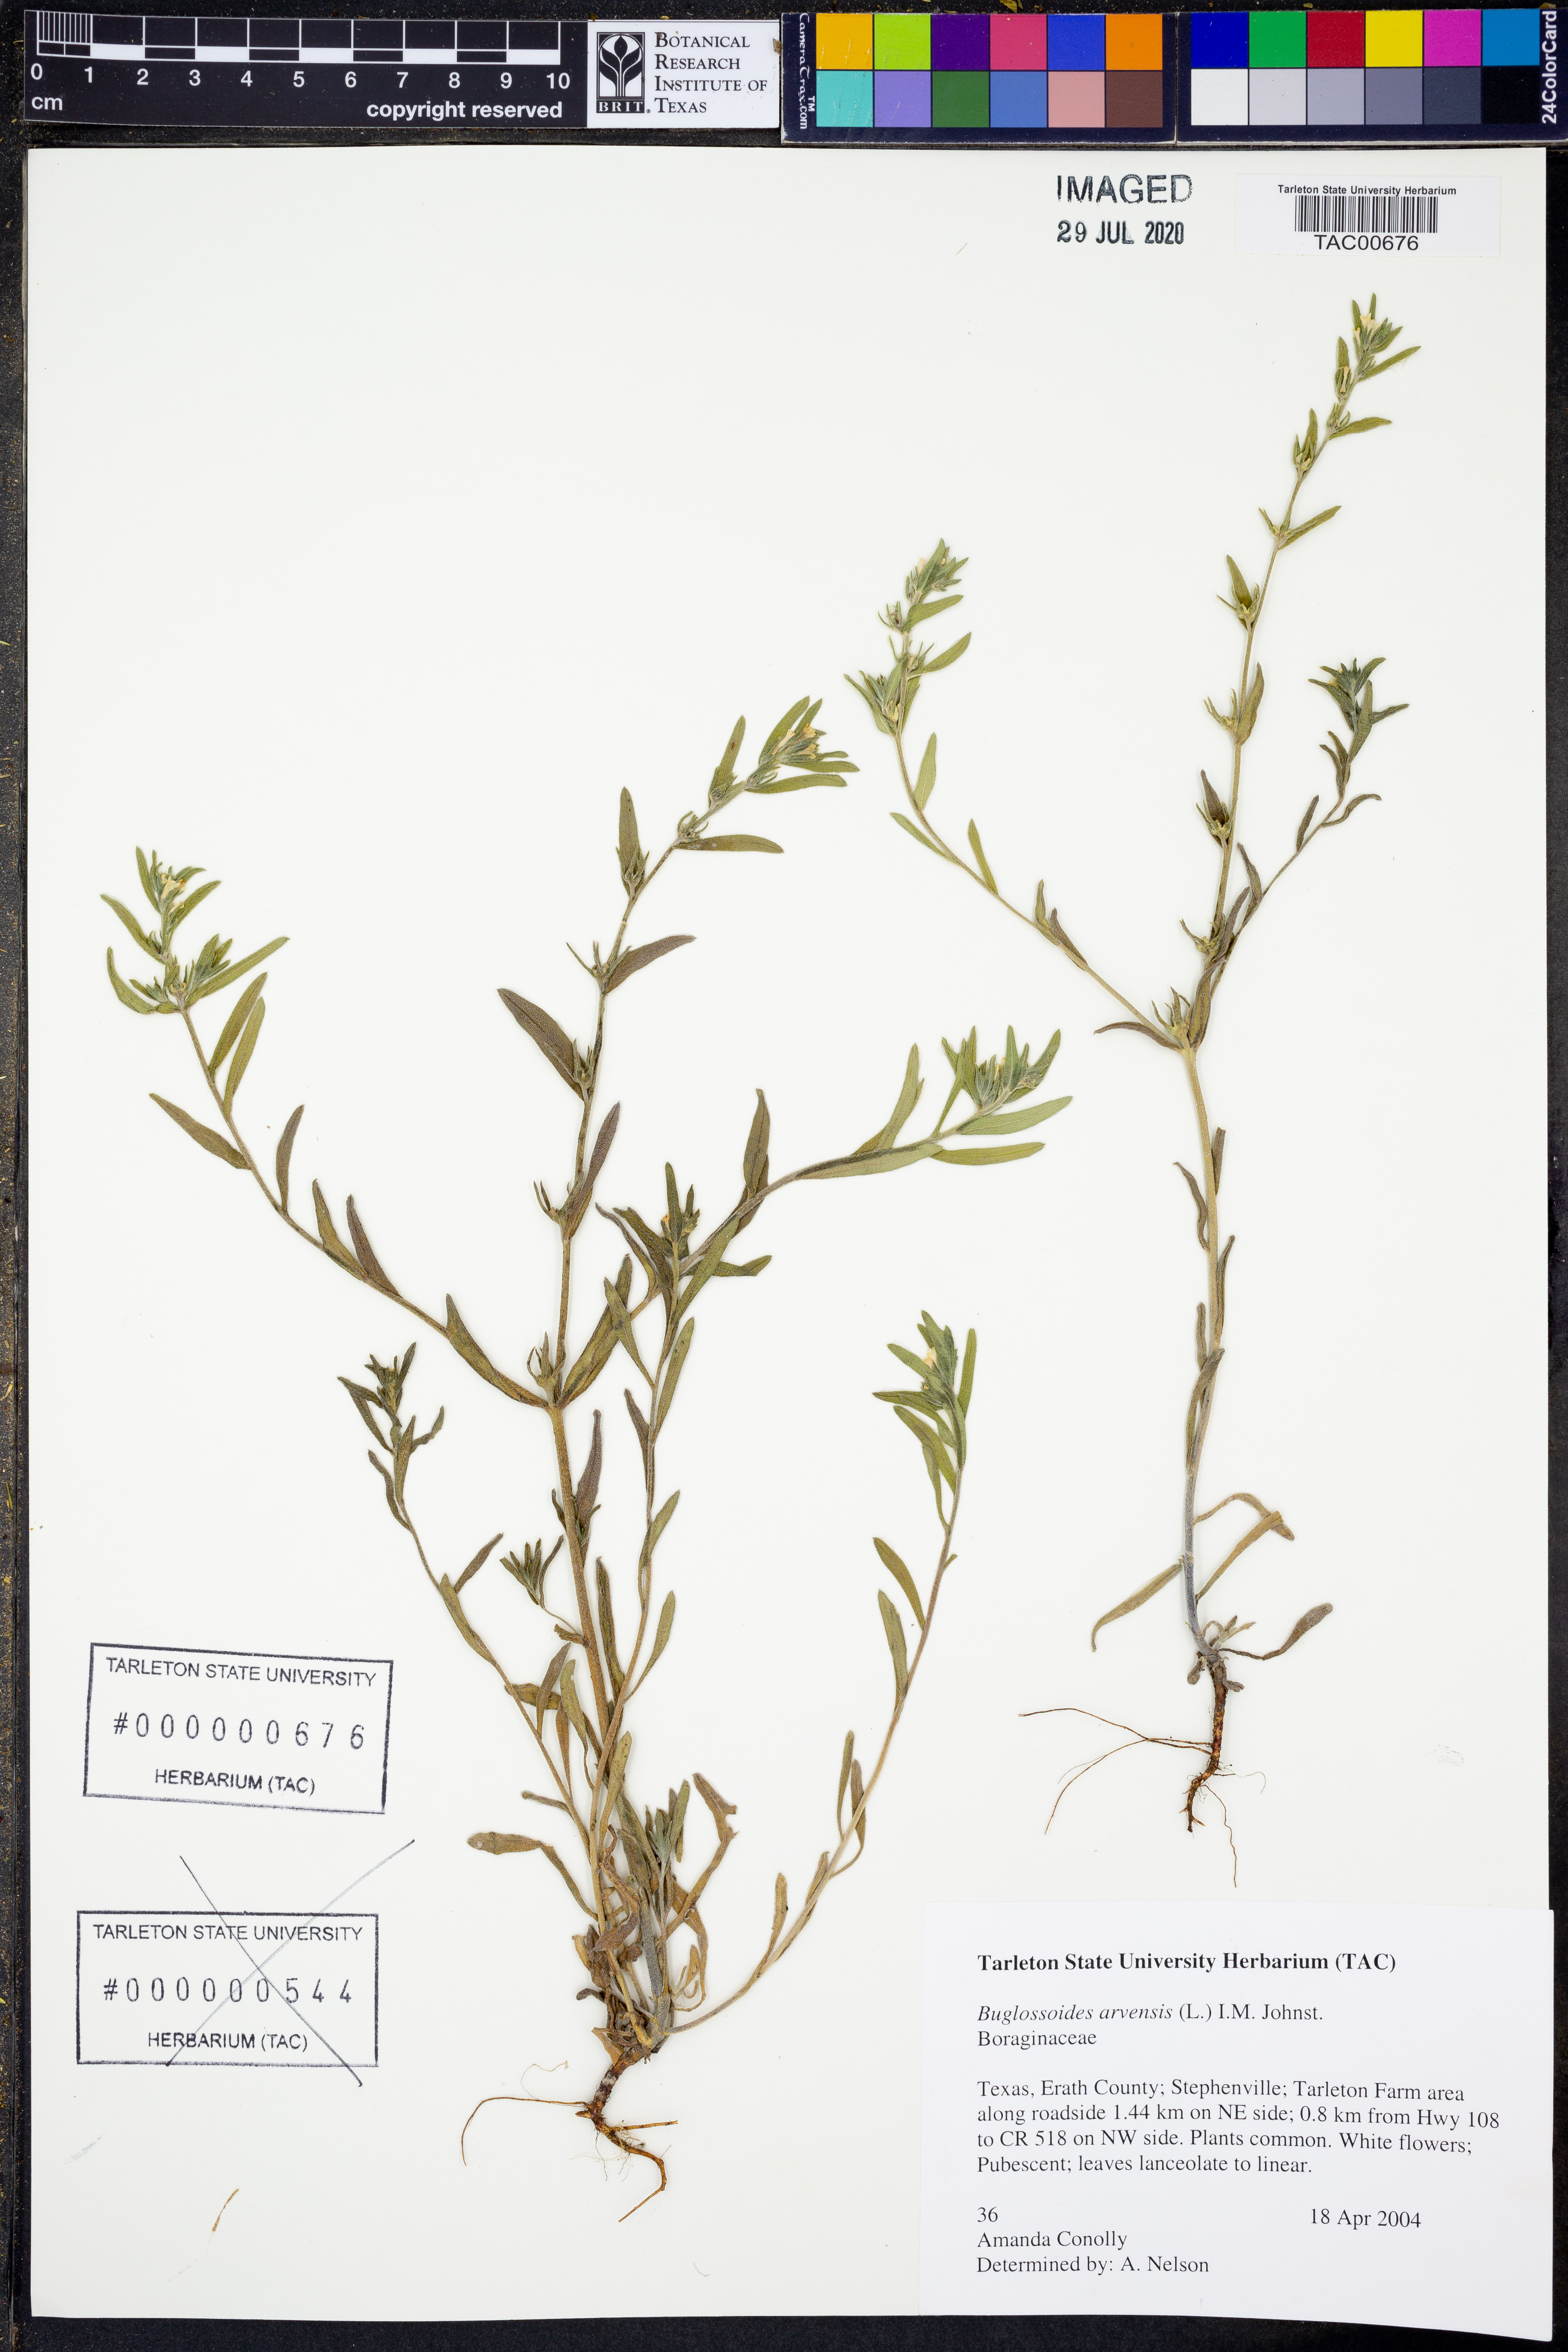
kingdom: Plantae
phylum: Tracheophyta
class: Magnoliopsida
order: Boraginales
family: Boraginaceae
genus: Buglossoides
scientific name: Buglossoides arvensis
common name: Corn gromwell
